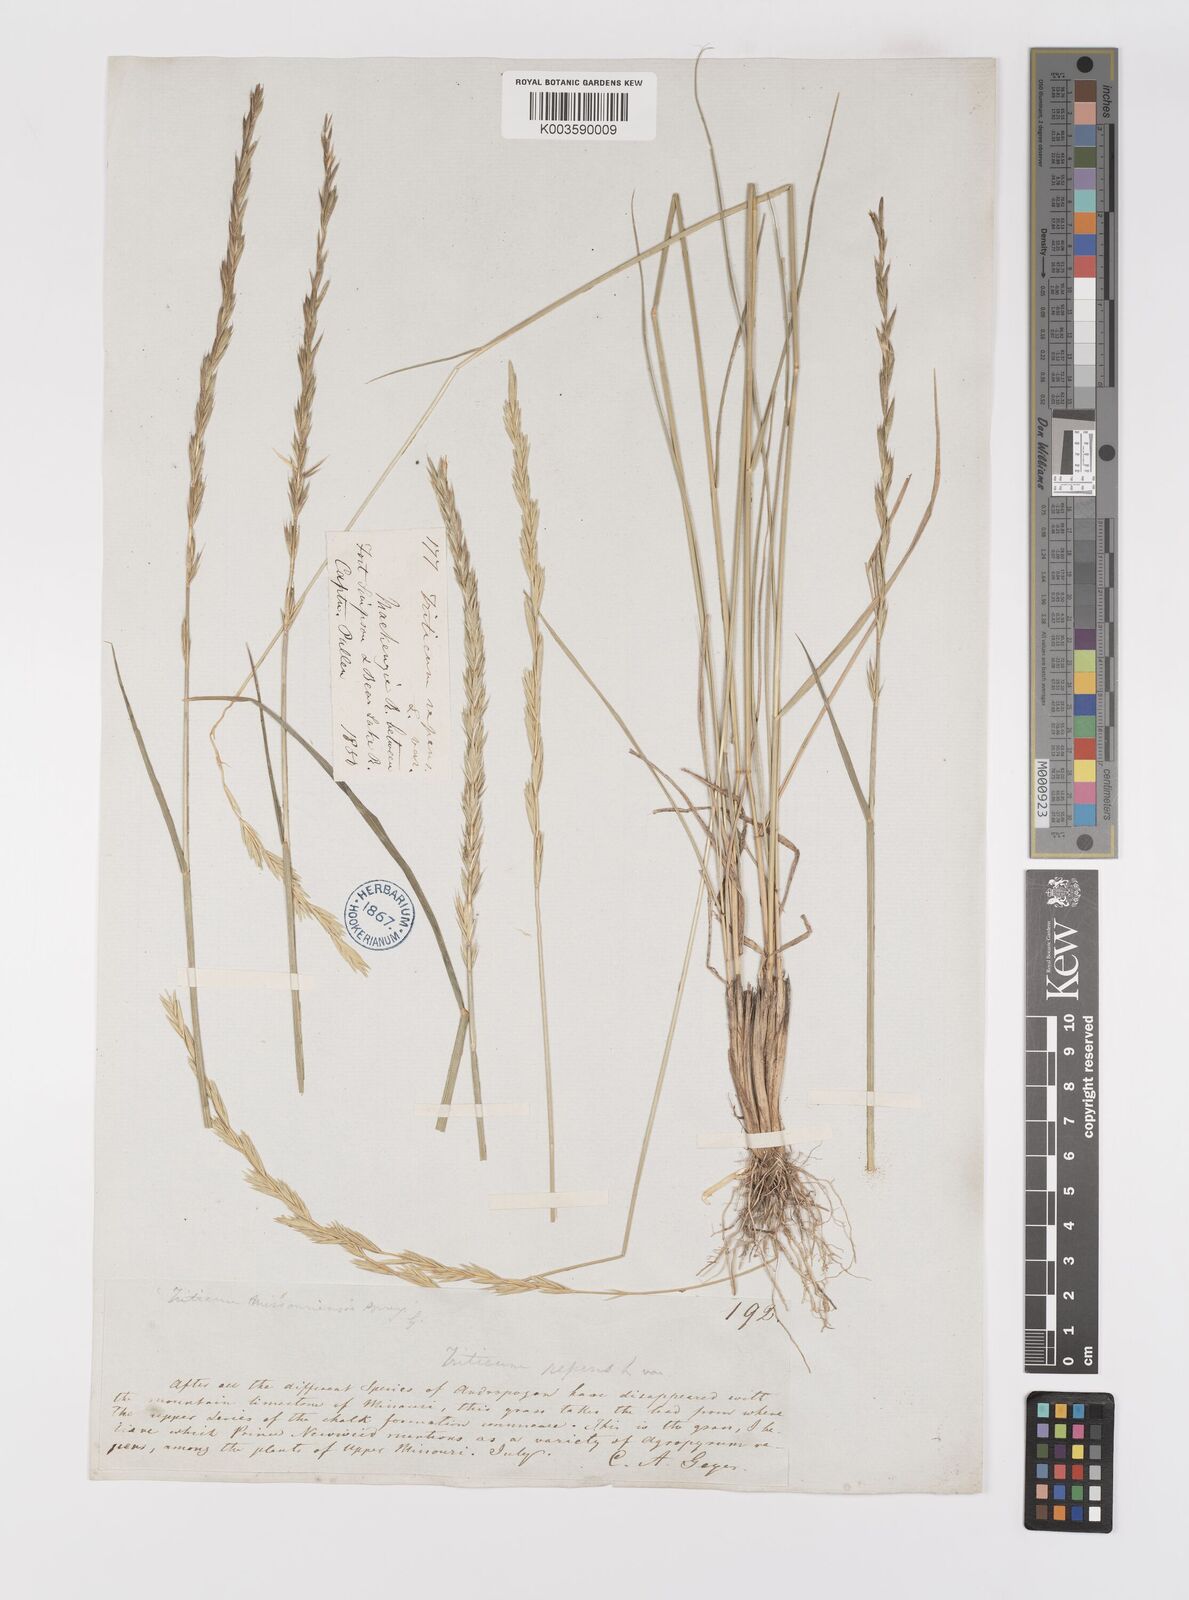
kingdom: Plantae
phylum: Tracheophyta
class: Liliopsida
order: Poales
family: Poaceae
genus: Elymus
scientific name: Elymus repens
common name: Quackgrass
